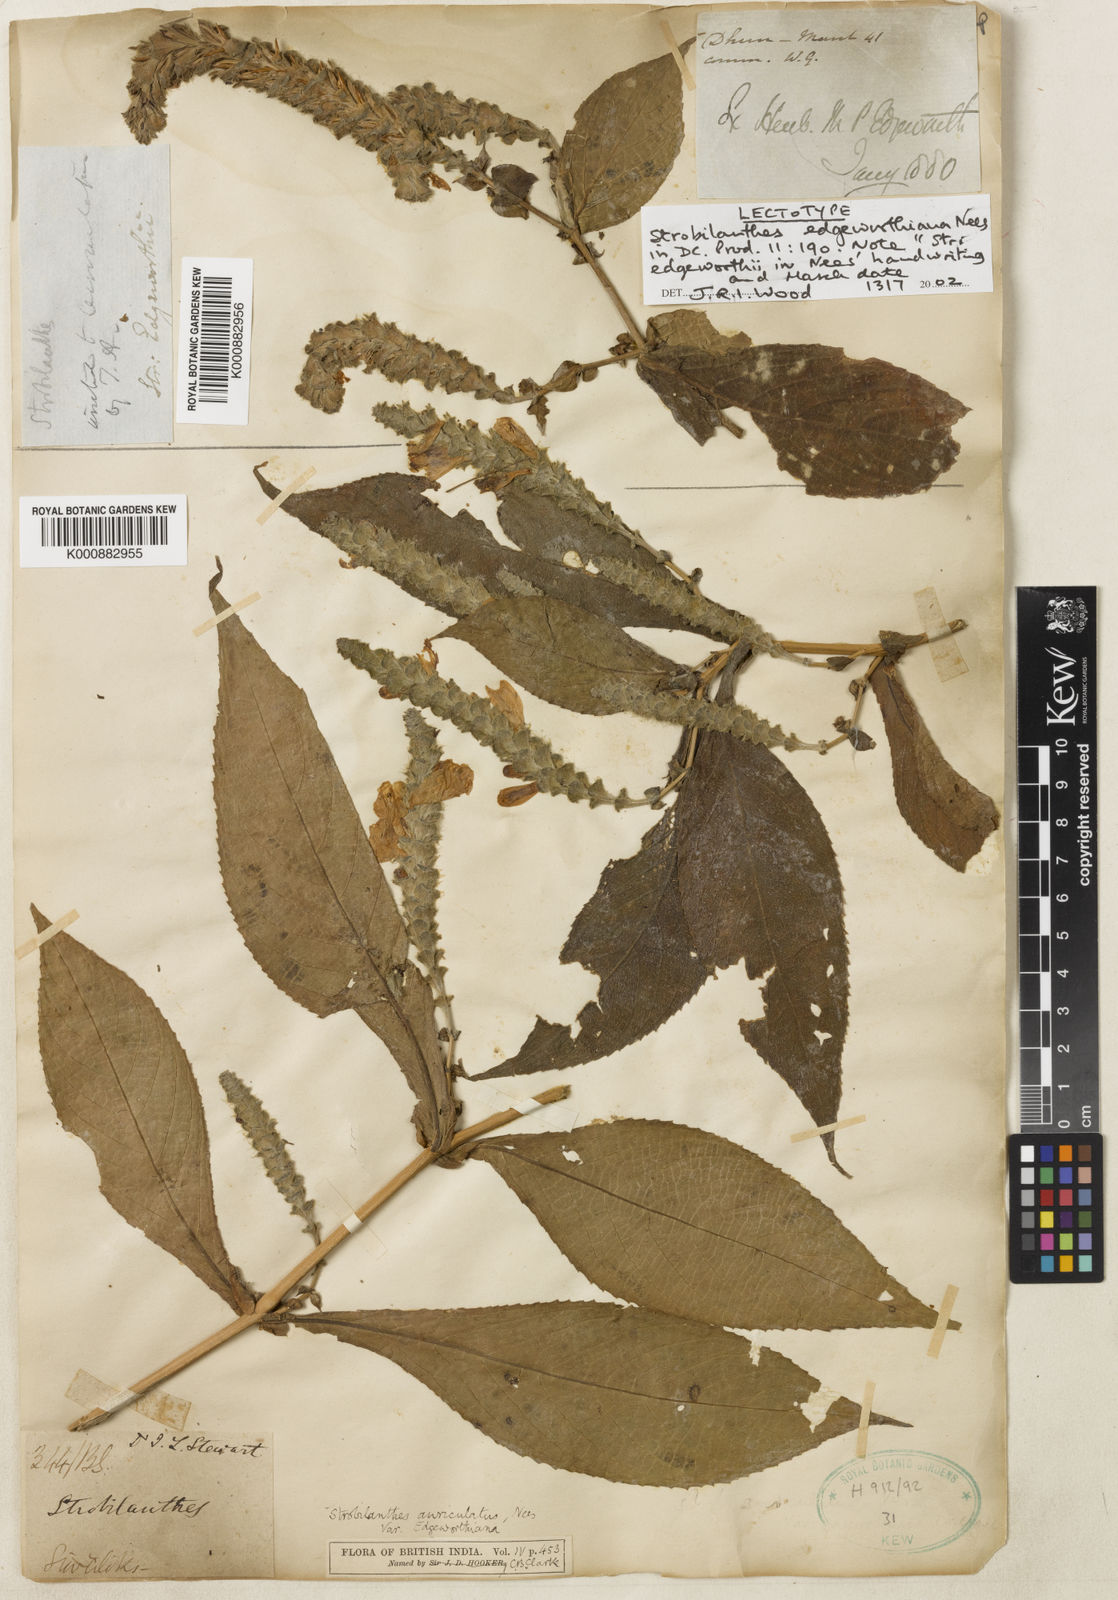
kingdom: Plantae
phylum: Tracheophyta
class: Magnoliopsida
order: Lamiales
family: Acanthaceae
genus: Strobilanthes
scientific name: Strobilanthes auriculata
